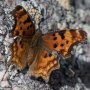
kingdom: Animalia
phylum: Arthropoda
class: Insecta
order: Lepidoptera
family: Nymphalidae
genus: Polygonia
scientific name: Polygonia gracilis
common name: Hoary Comma
